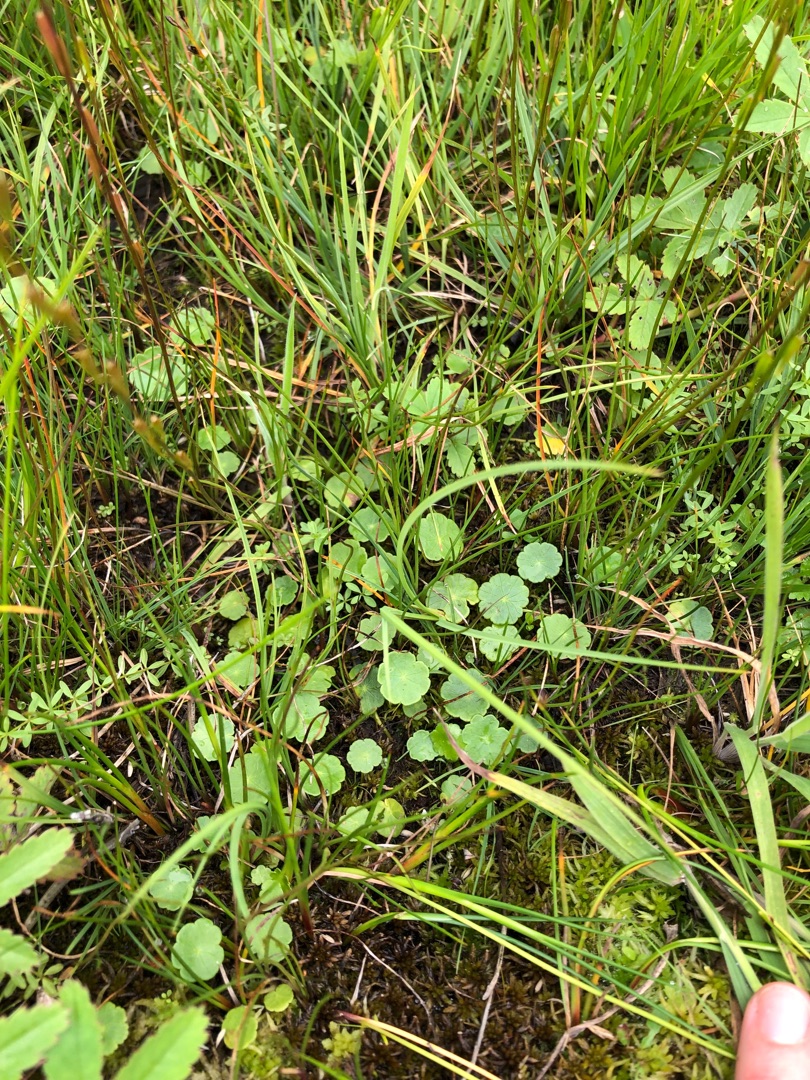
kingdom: Plantae
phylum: Tracheophyta
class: Magnoliopsida
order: Apiales
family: Araliaceae
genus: Hydrocotyle
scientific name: Hydrocotyle vulgaris
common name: Vandnavle
